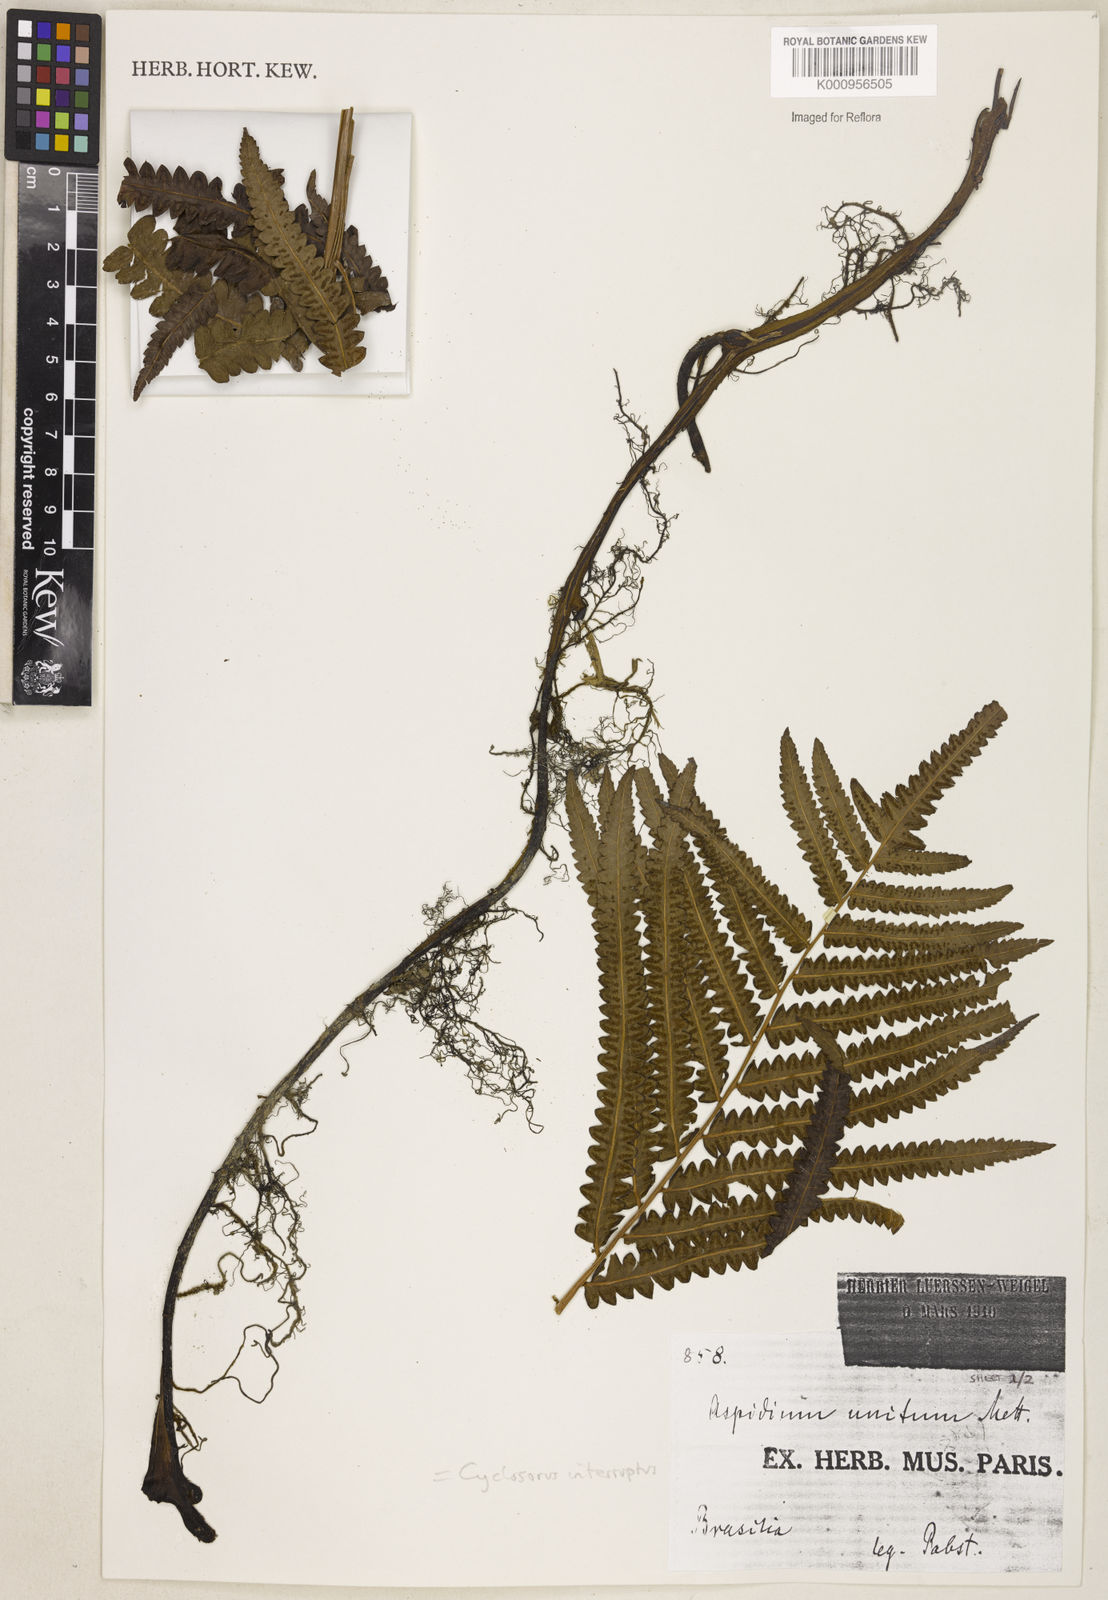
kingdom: Plantae
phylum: Tracheophyta
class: Polypodiopsida
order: Polypodiales
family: Thelypteridaceae
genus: Cyclosorus
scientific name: Cyclosorus interruptus
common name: Neke fern
